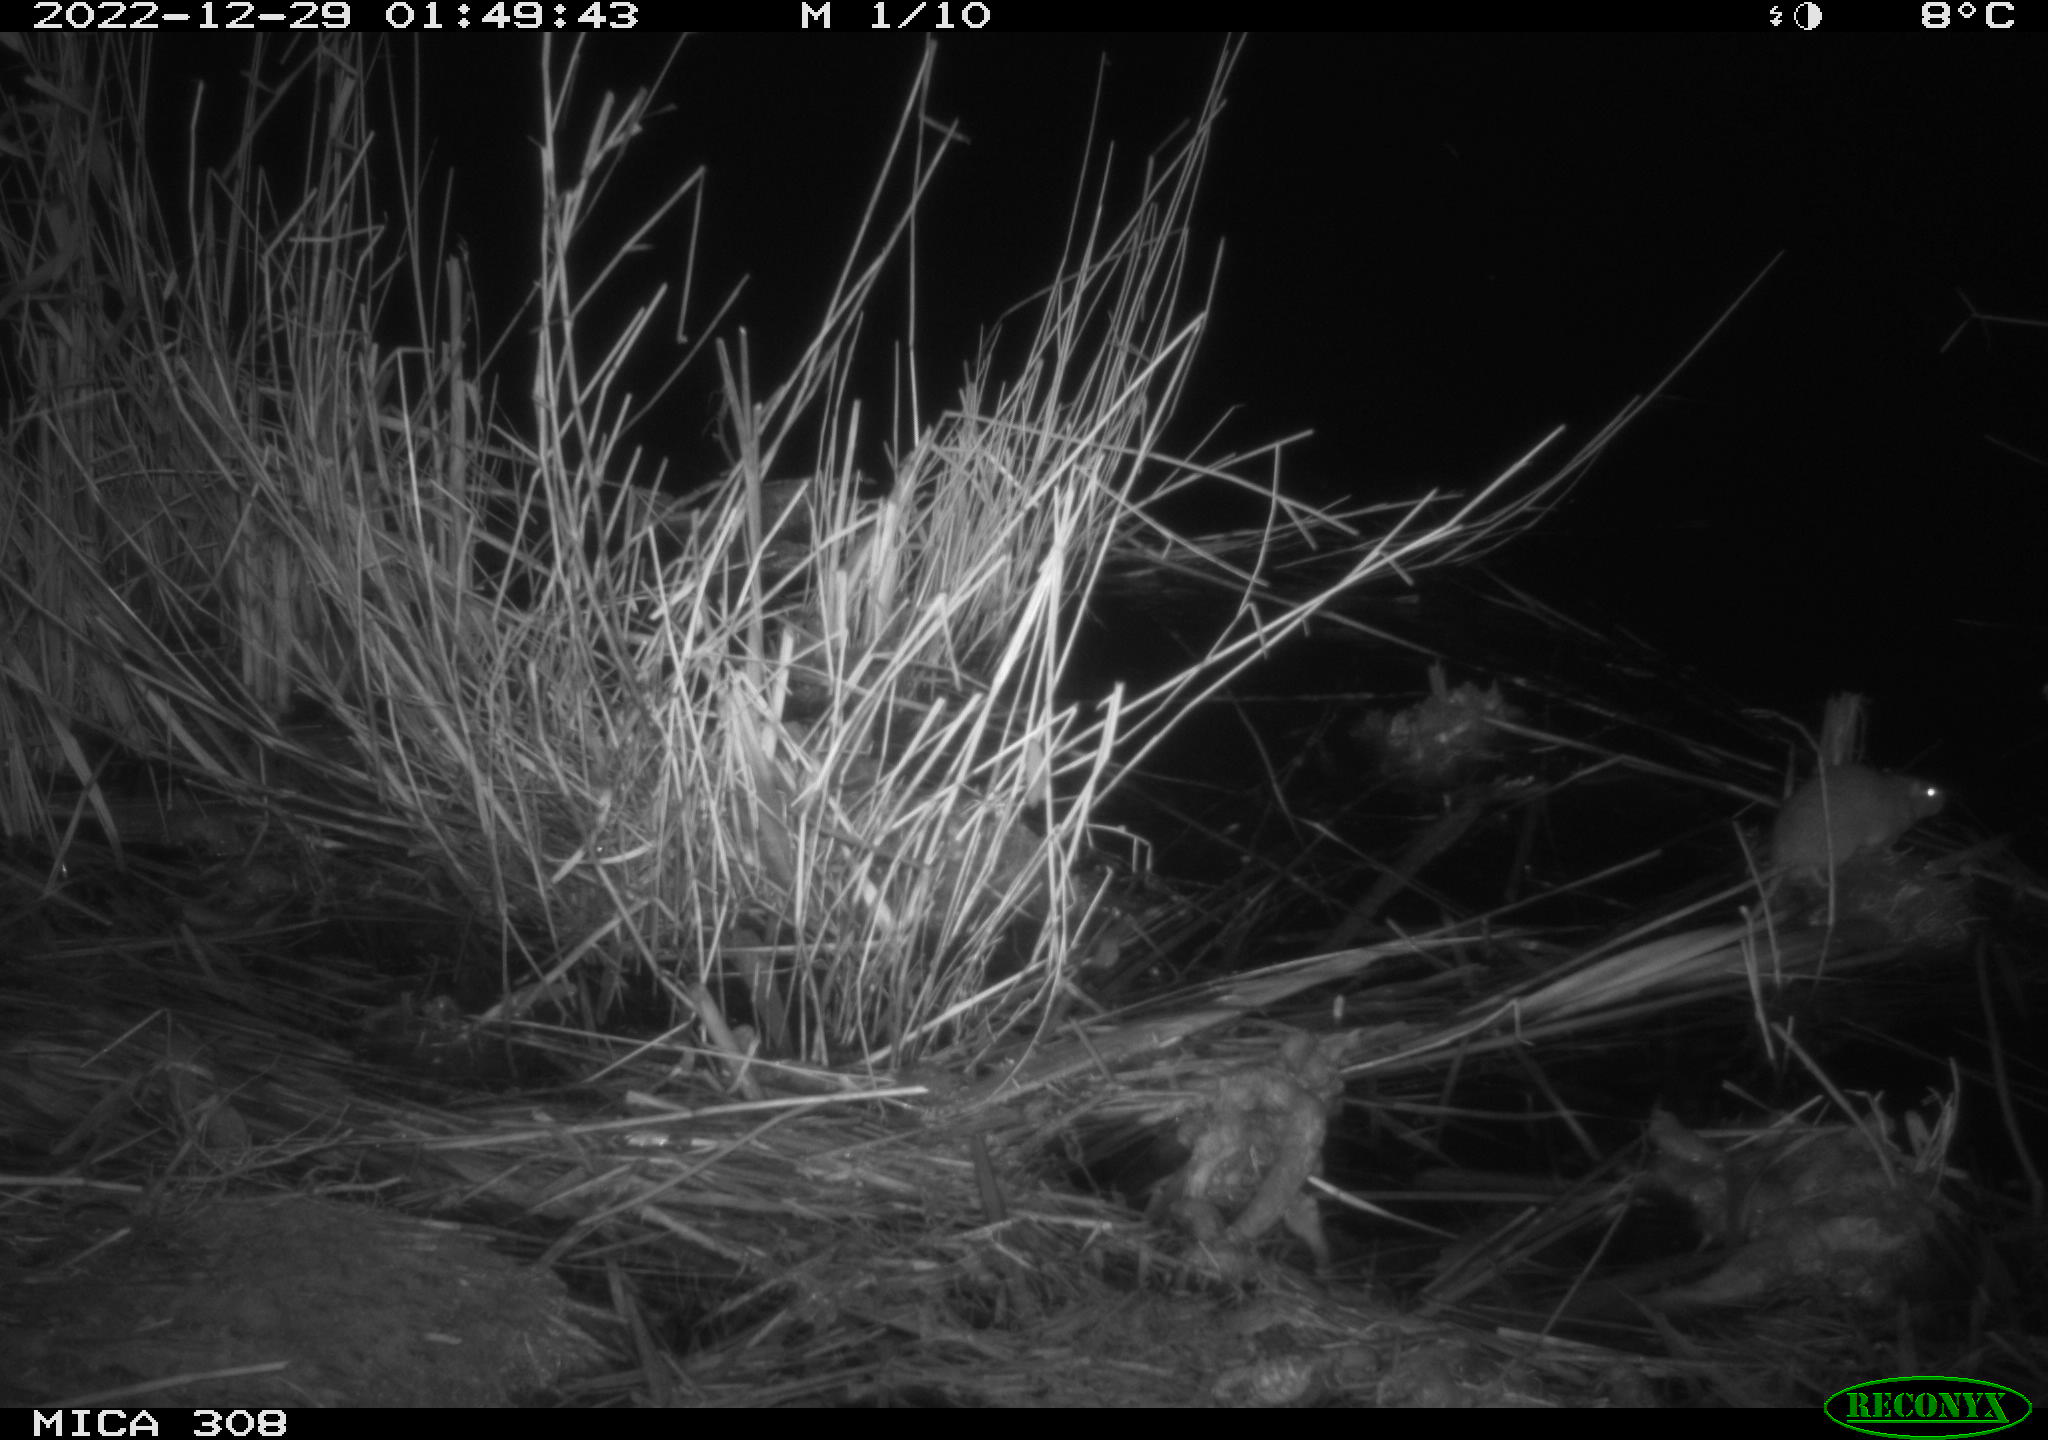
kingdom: Animalia
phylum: Chordata
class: Mammalia
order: Rodentia
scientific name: Rodentia
